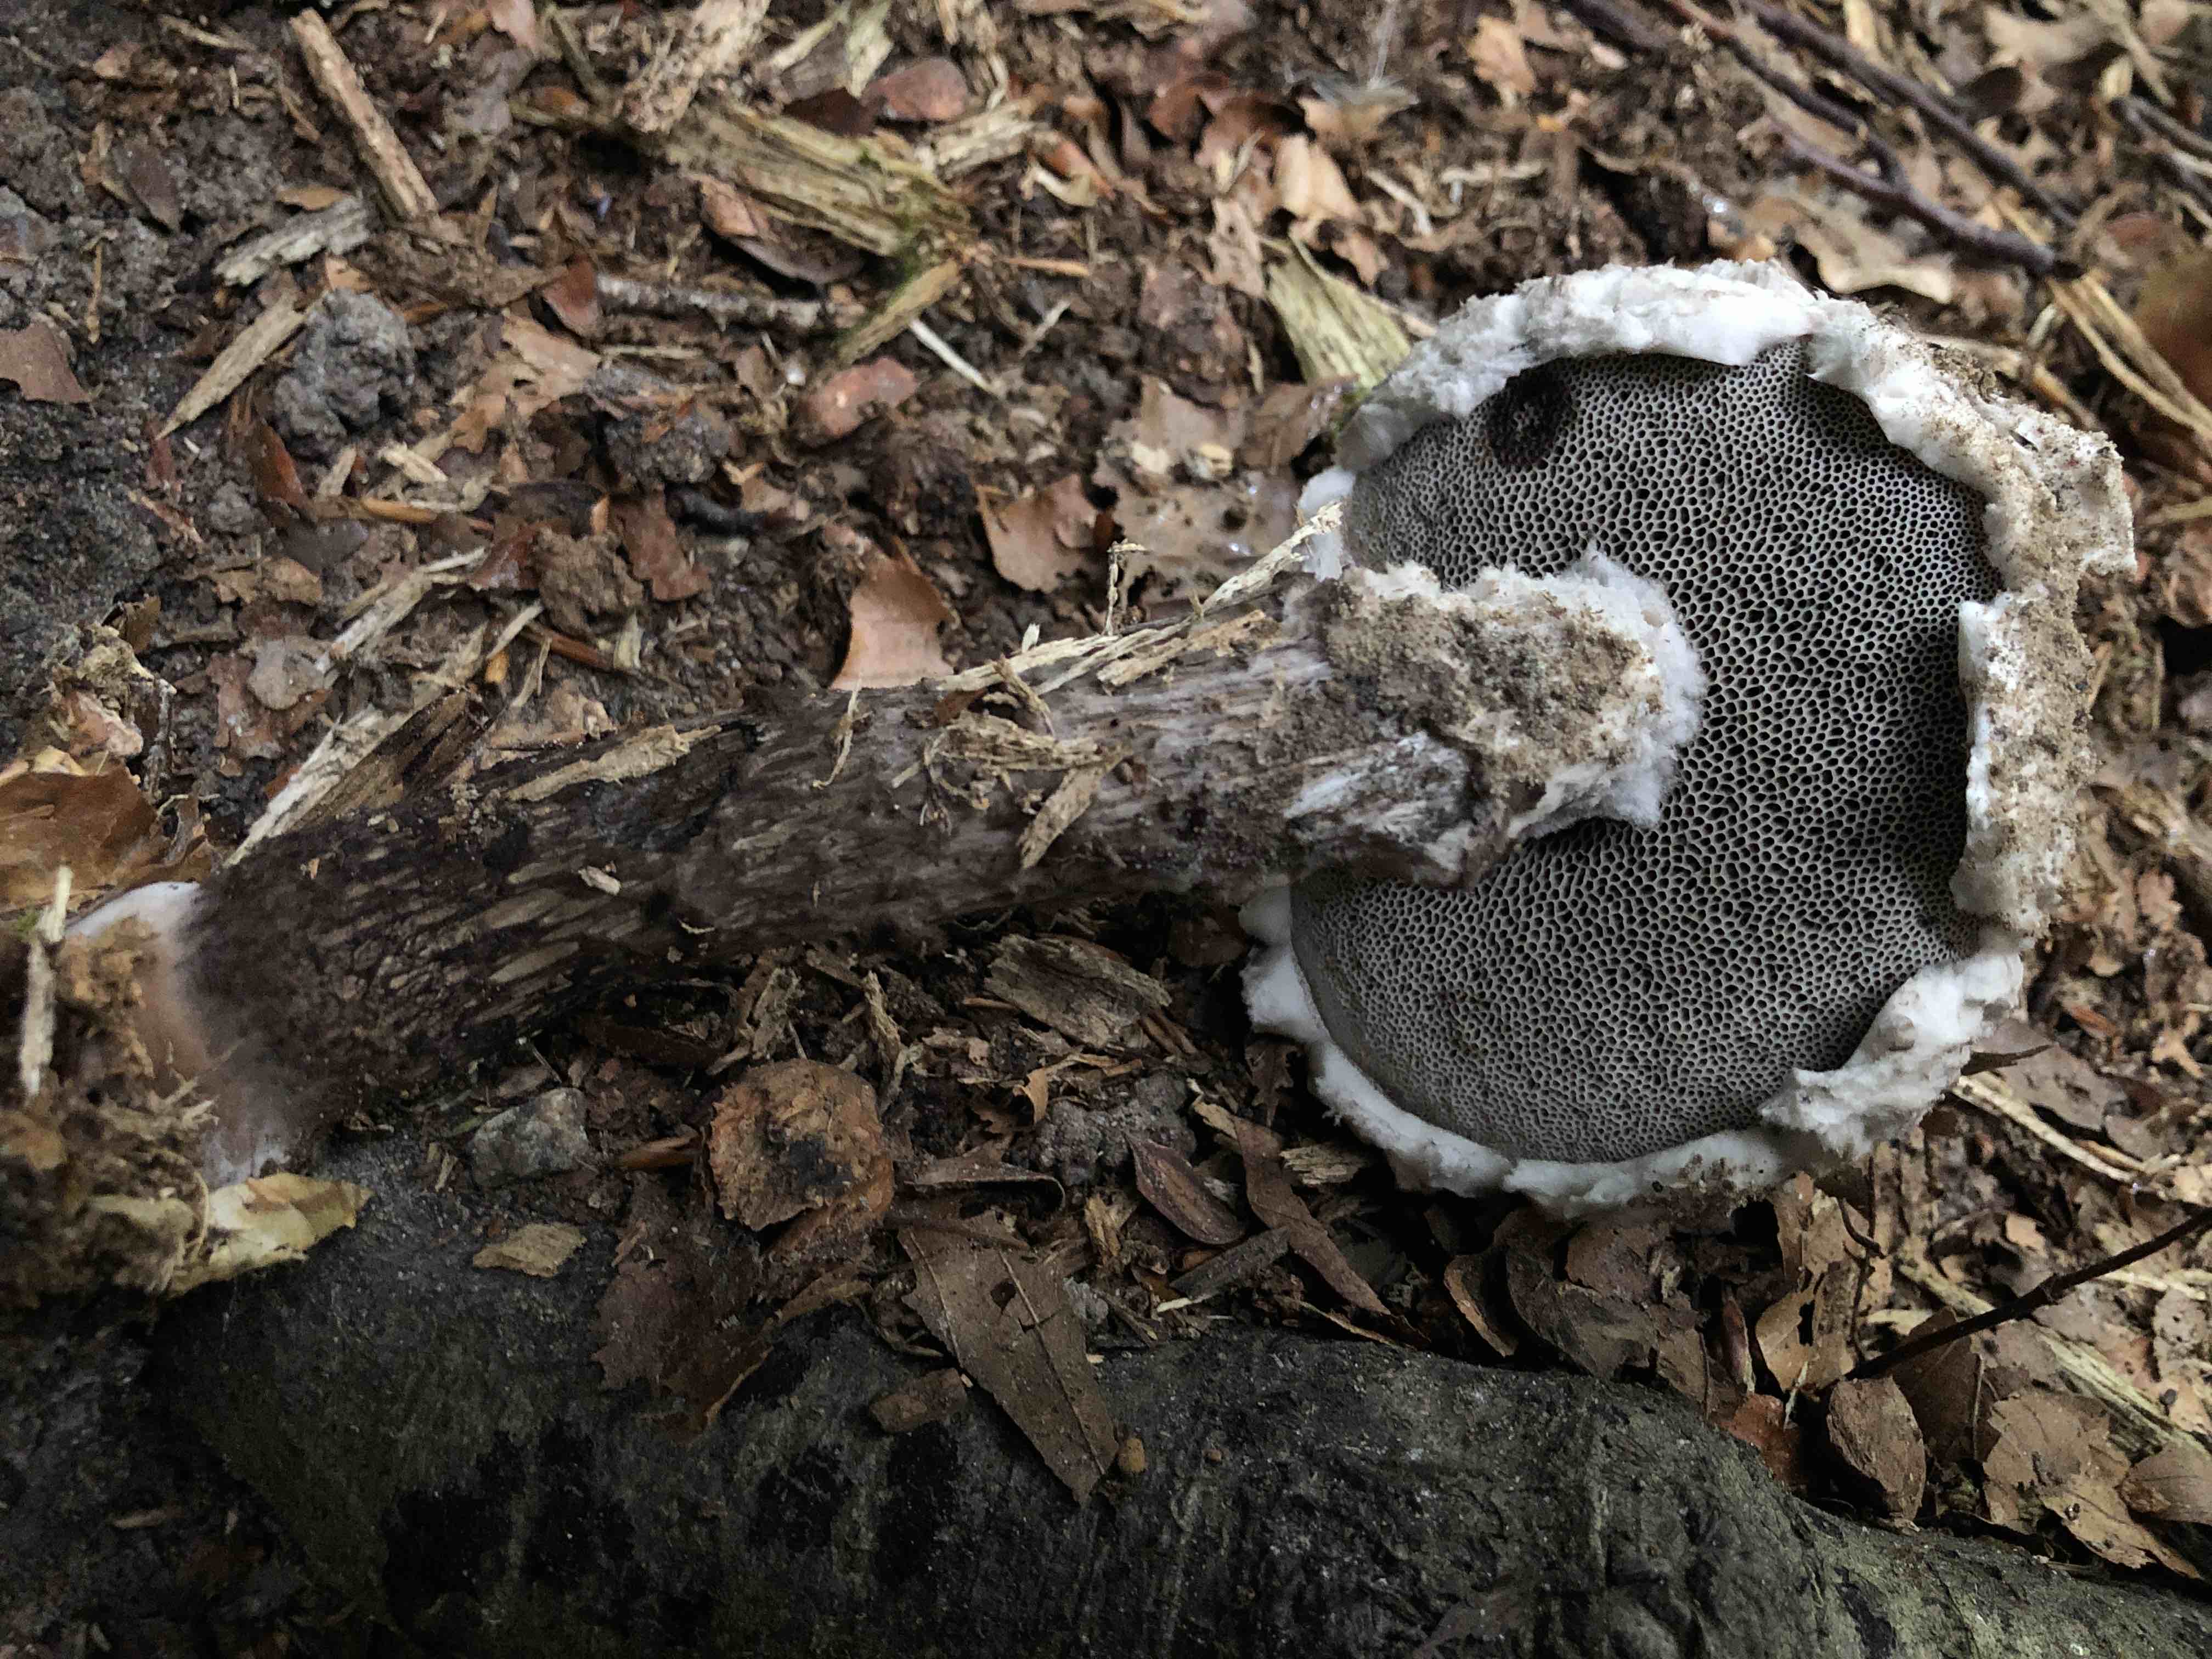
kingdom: Fungi
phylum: Basidiomycota
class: Agaricomycetes
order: Boletales
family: Boletaceae
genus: Strobilomyces
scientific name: Strobilomyces strobilaceus
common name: koglerørhat
